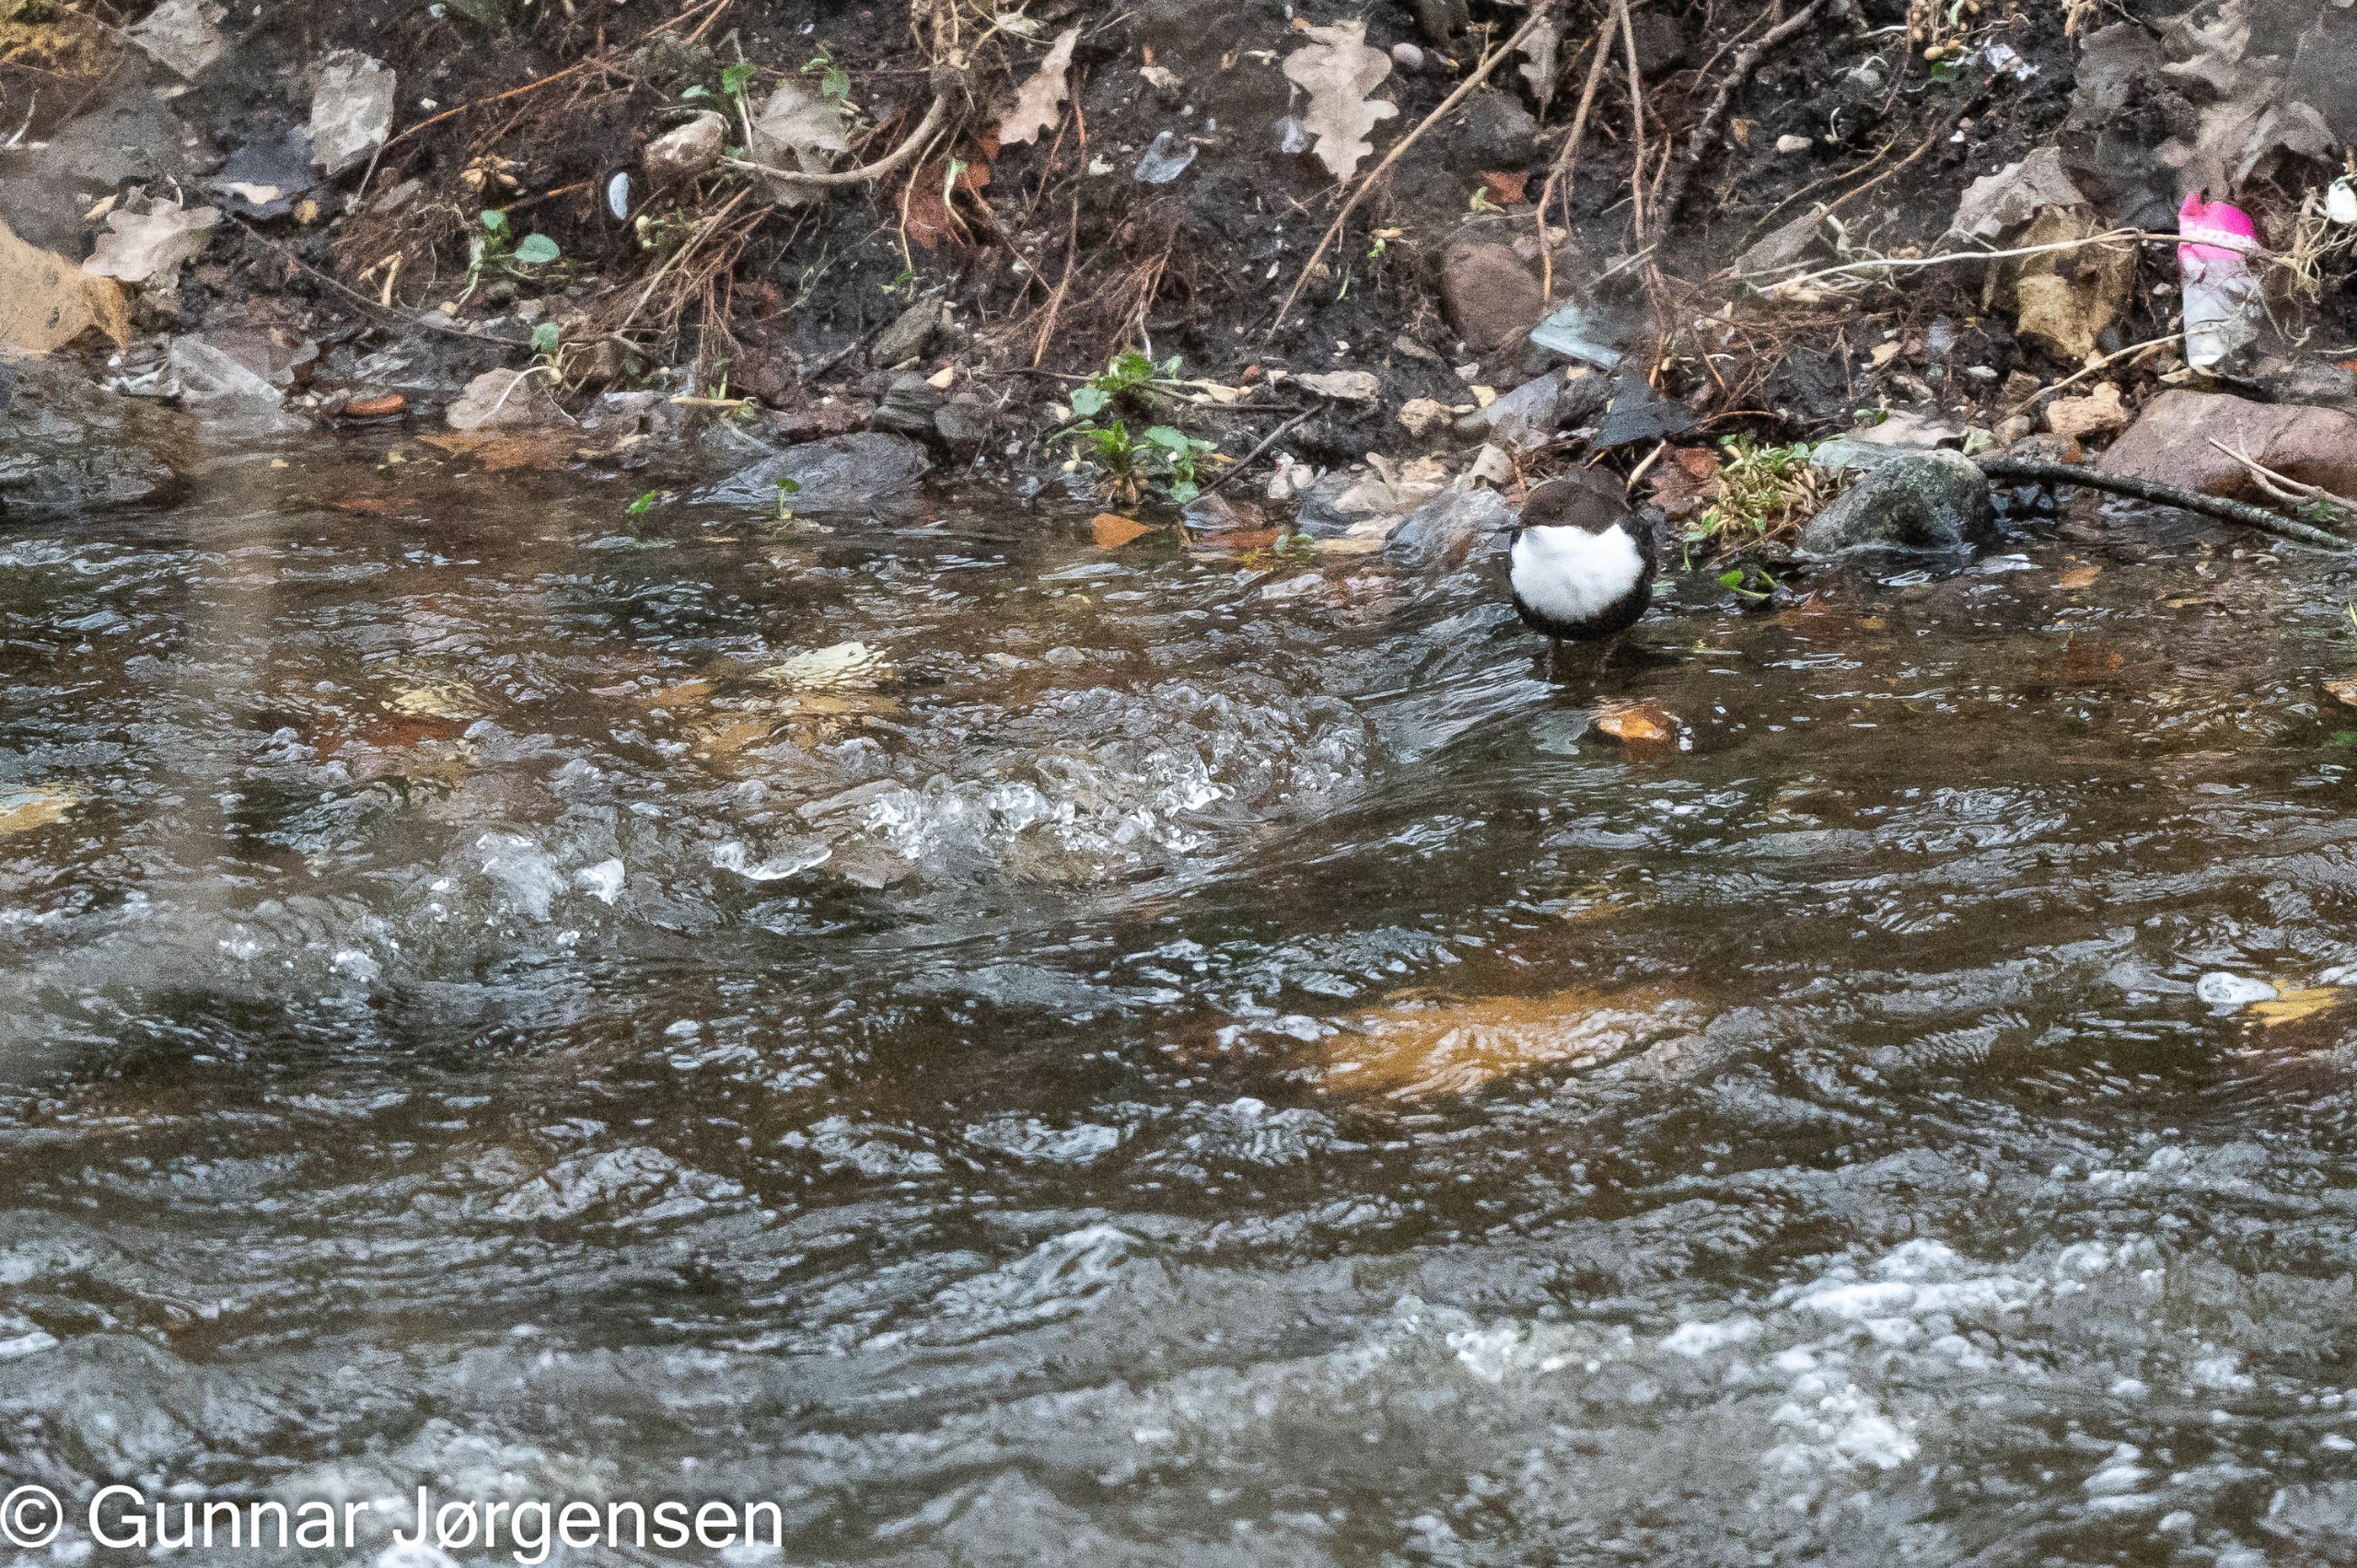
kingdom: Animalia
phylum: Chordata
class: Aves
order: Passeriformes
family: Cinclidae
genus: Cinclus
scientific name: Cinclus cinclus
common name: Vandstær
